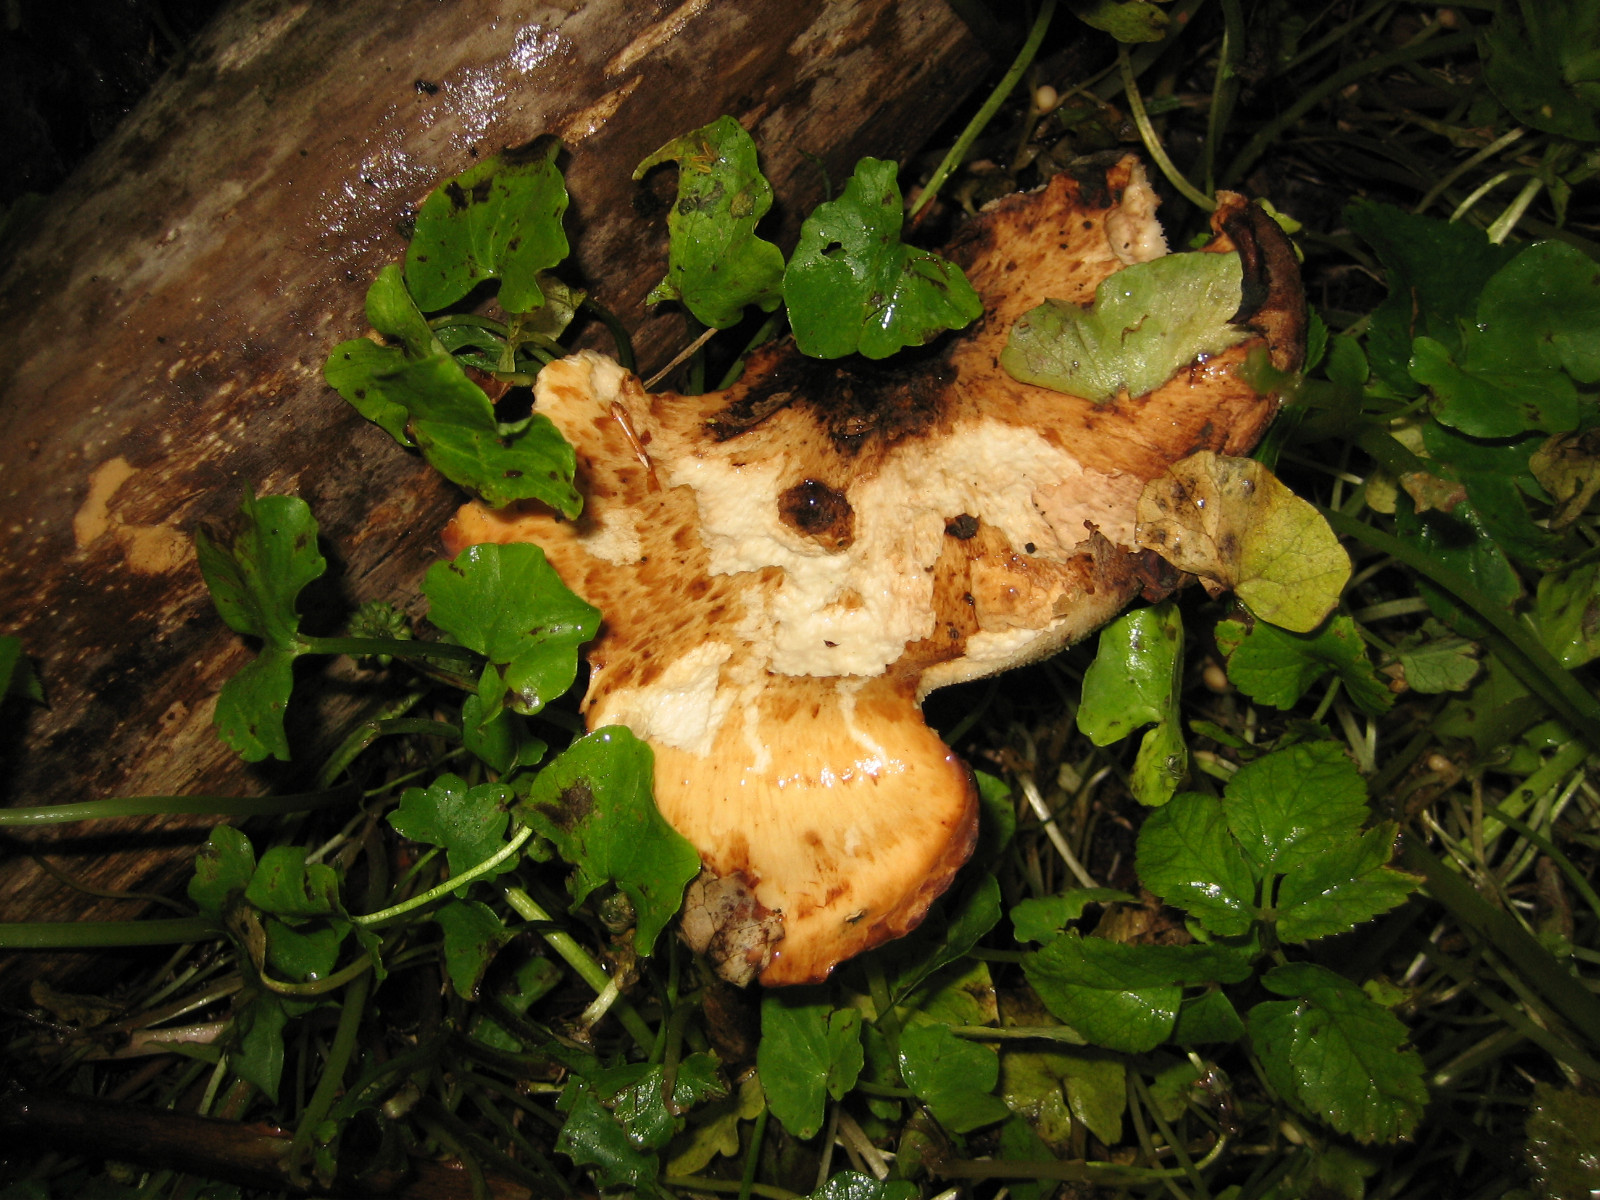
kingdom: Fungi
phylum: Basidiomycota
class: Agaricomycetes
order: Polyporales
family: Polyporaceae
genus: Cerioporus
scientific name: Cerioporus squamosus
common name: skællet stilkporesvamp
